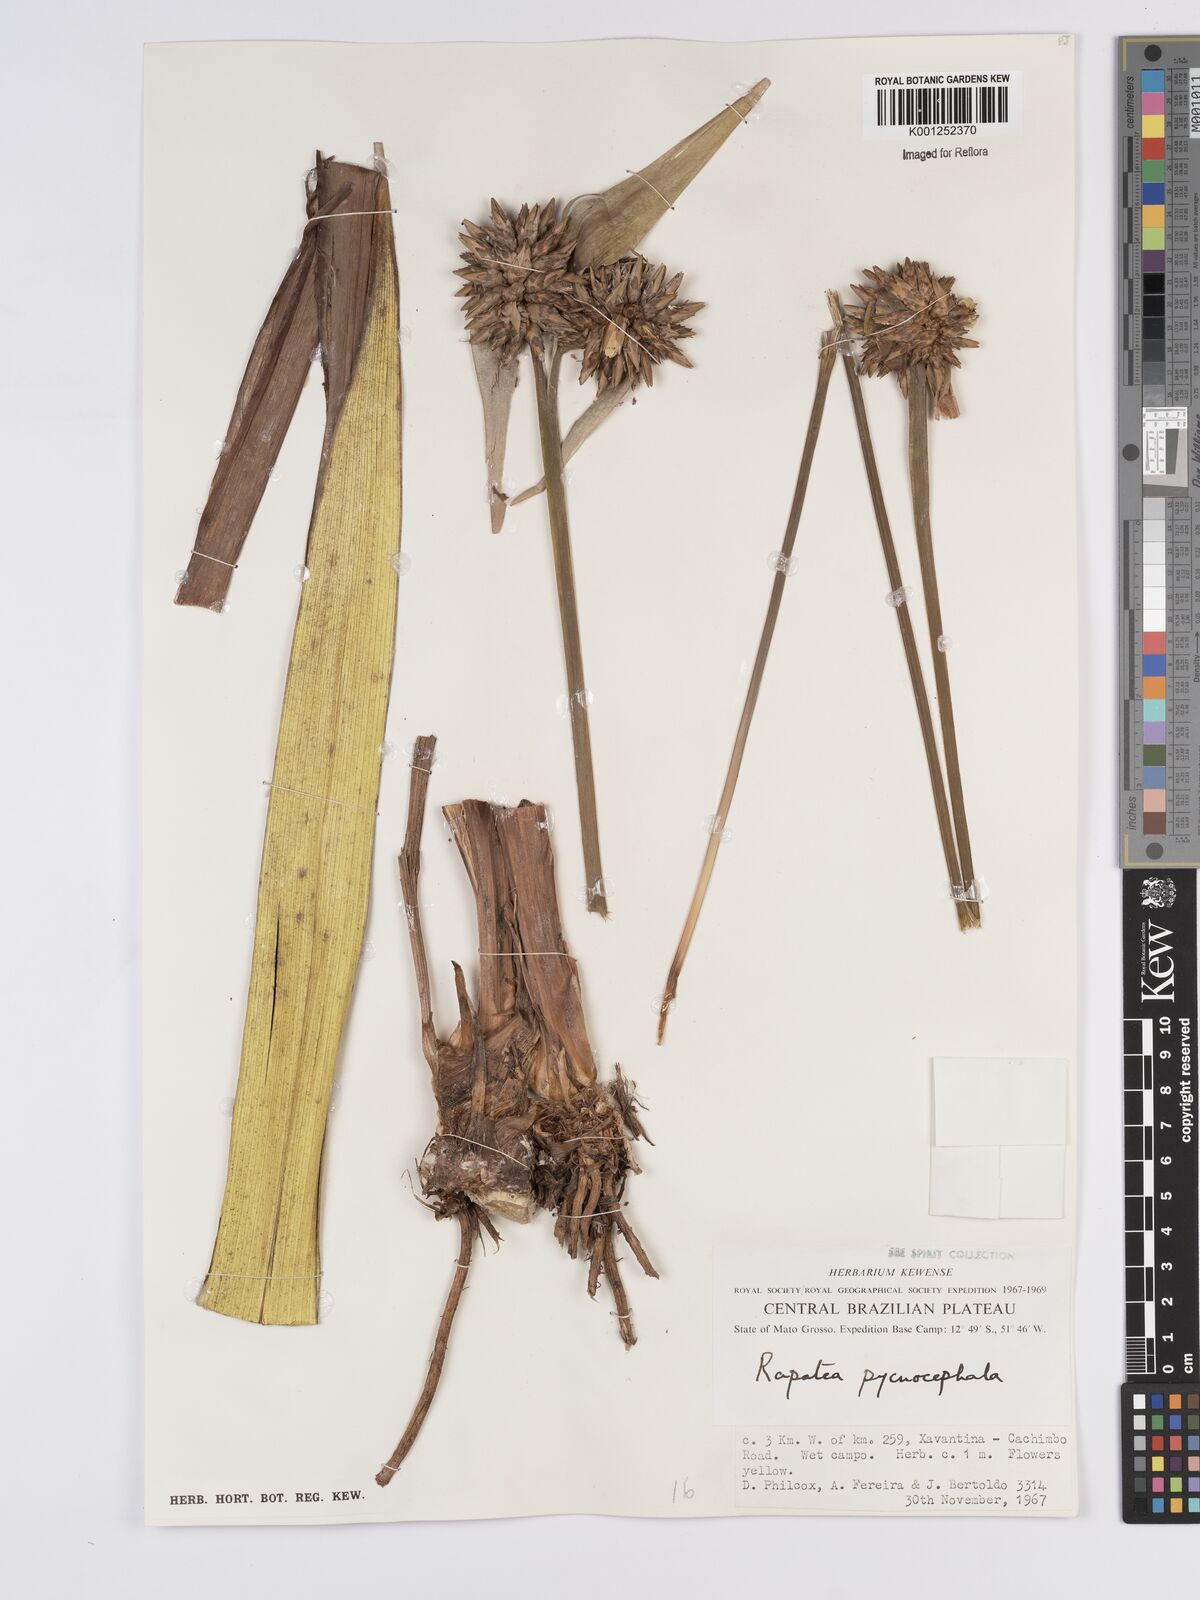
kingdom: Plantae
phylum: Tracheophyta
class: Liliopsida
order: Poales
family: Rapateaceae
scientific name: Rapateaceae
